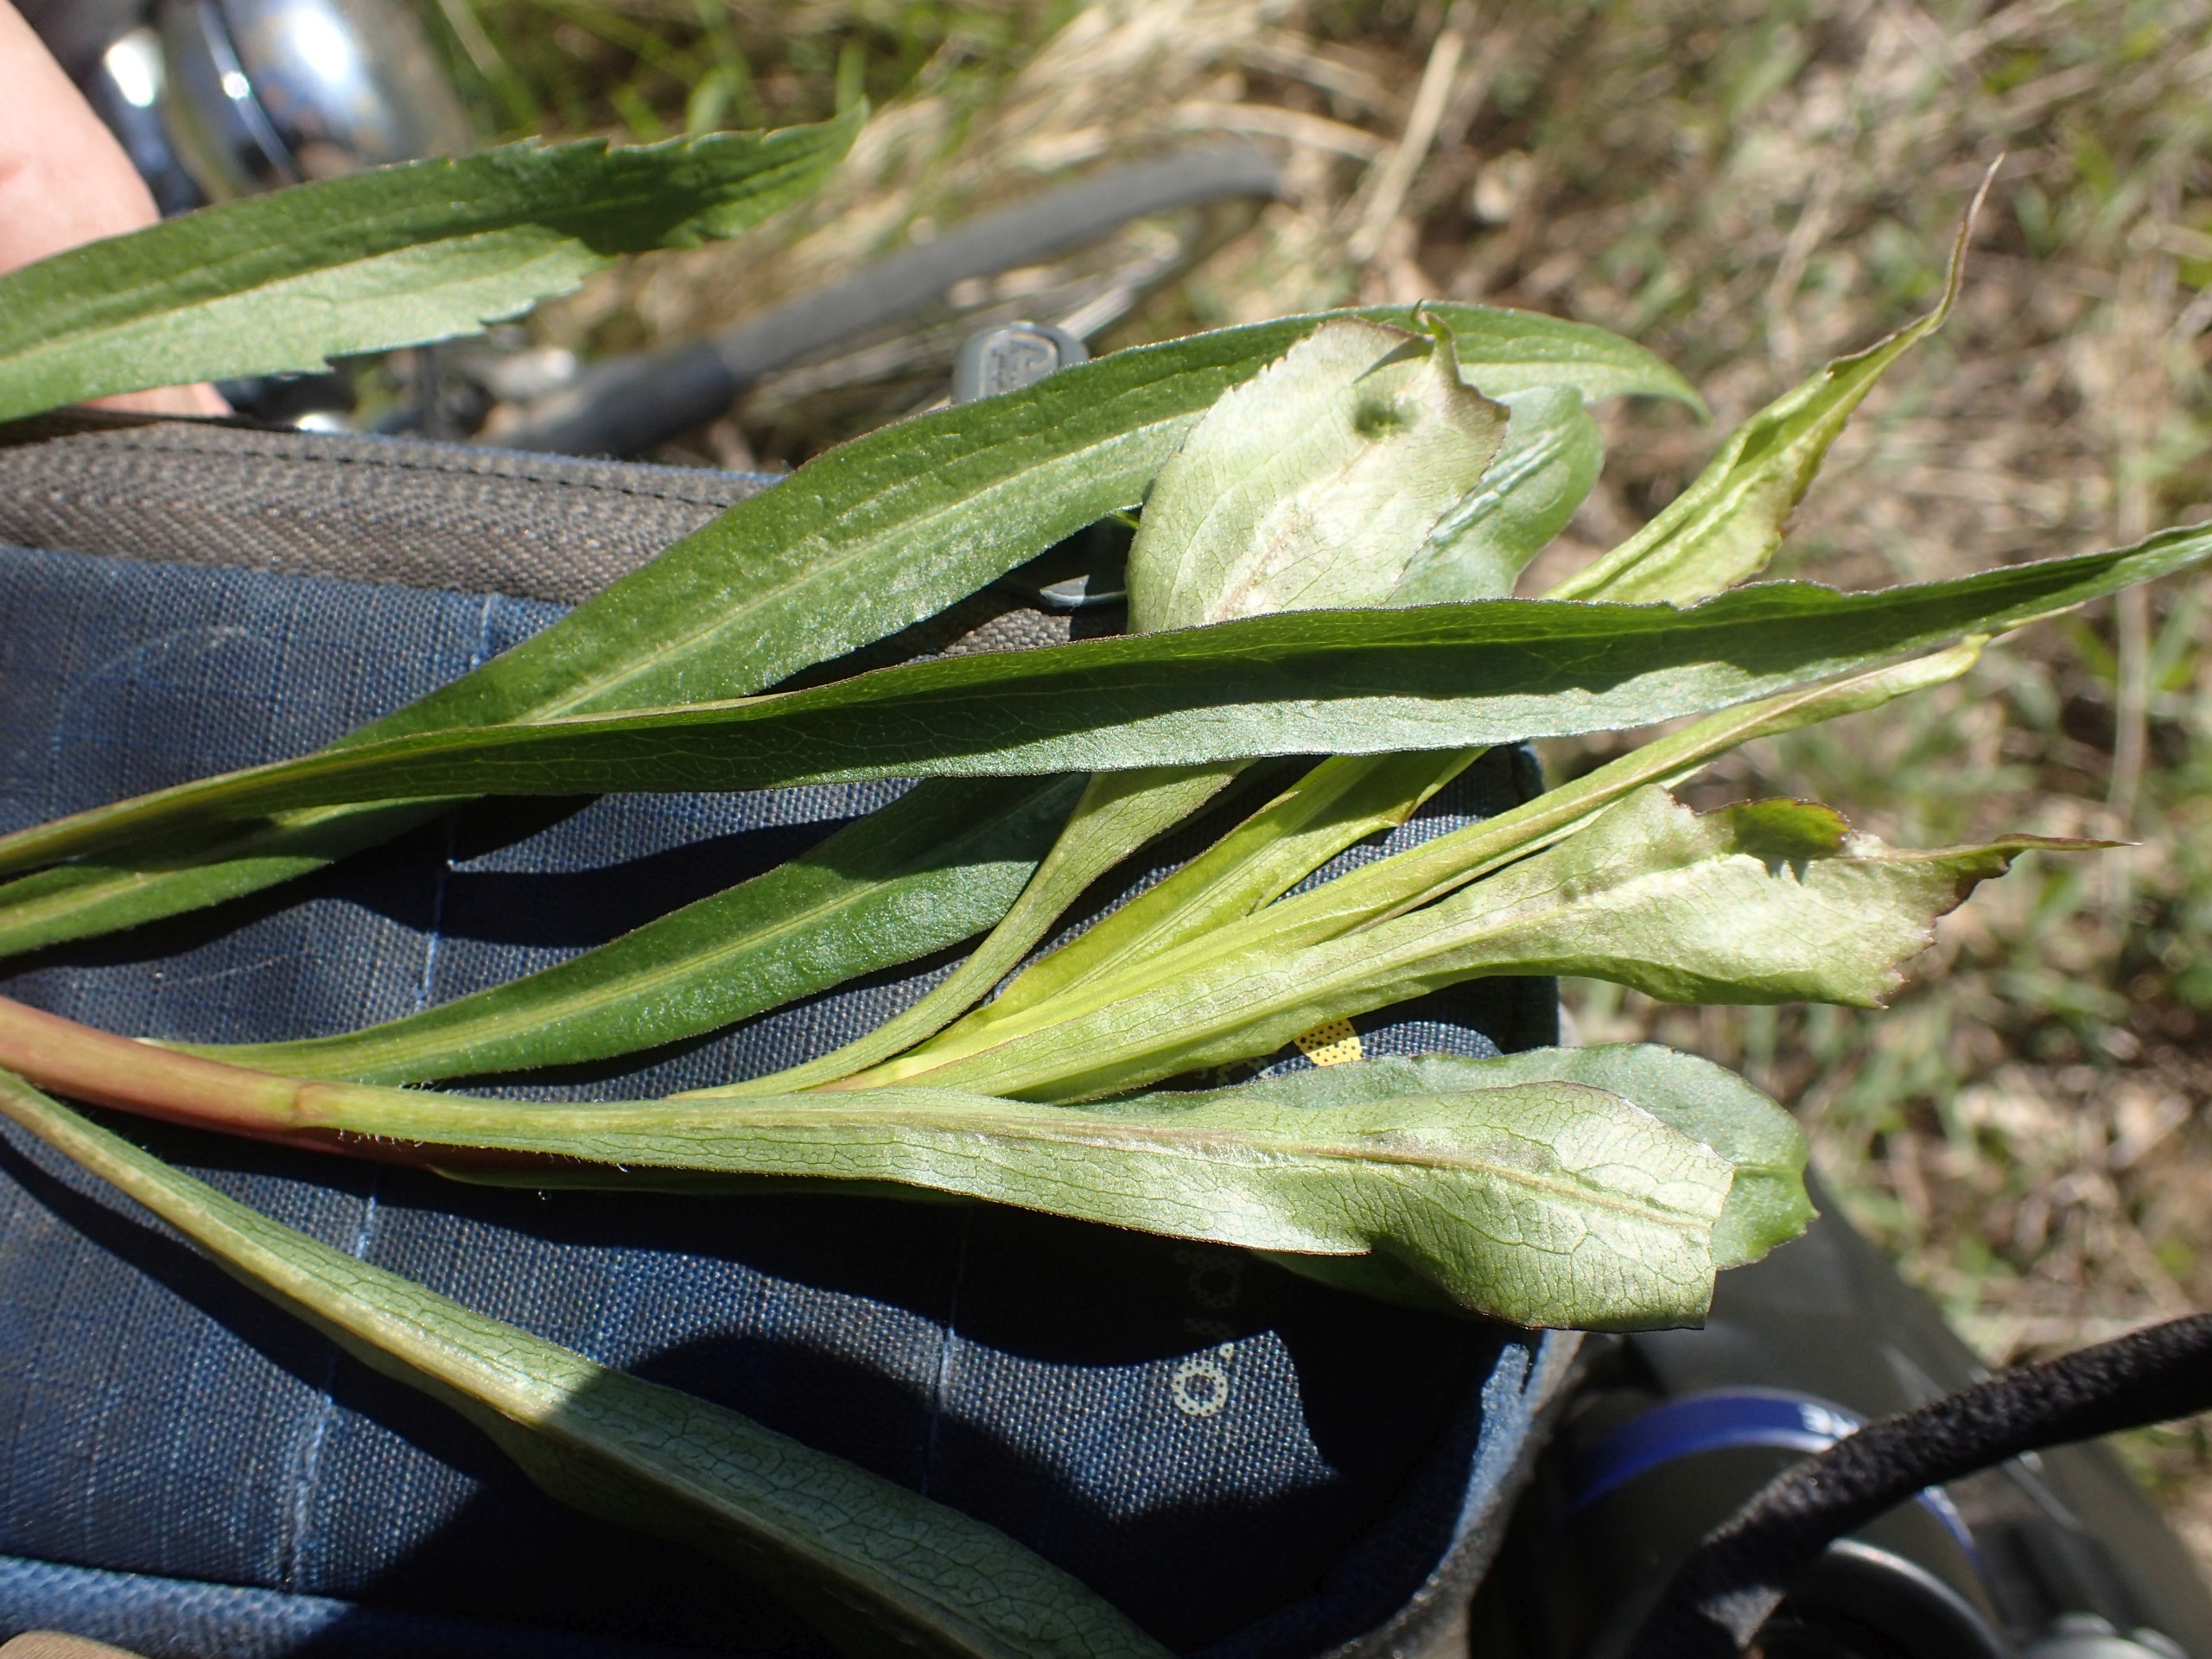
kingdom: Plantae
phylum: Tracheophyta
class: Magnoliopsida
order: Asterales
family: Asteraceae
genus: Solidago
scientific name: Solidago gigantea
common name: Sildig gyldenris
